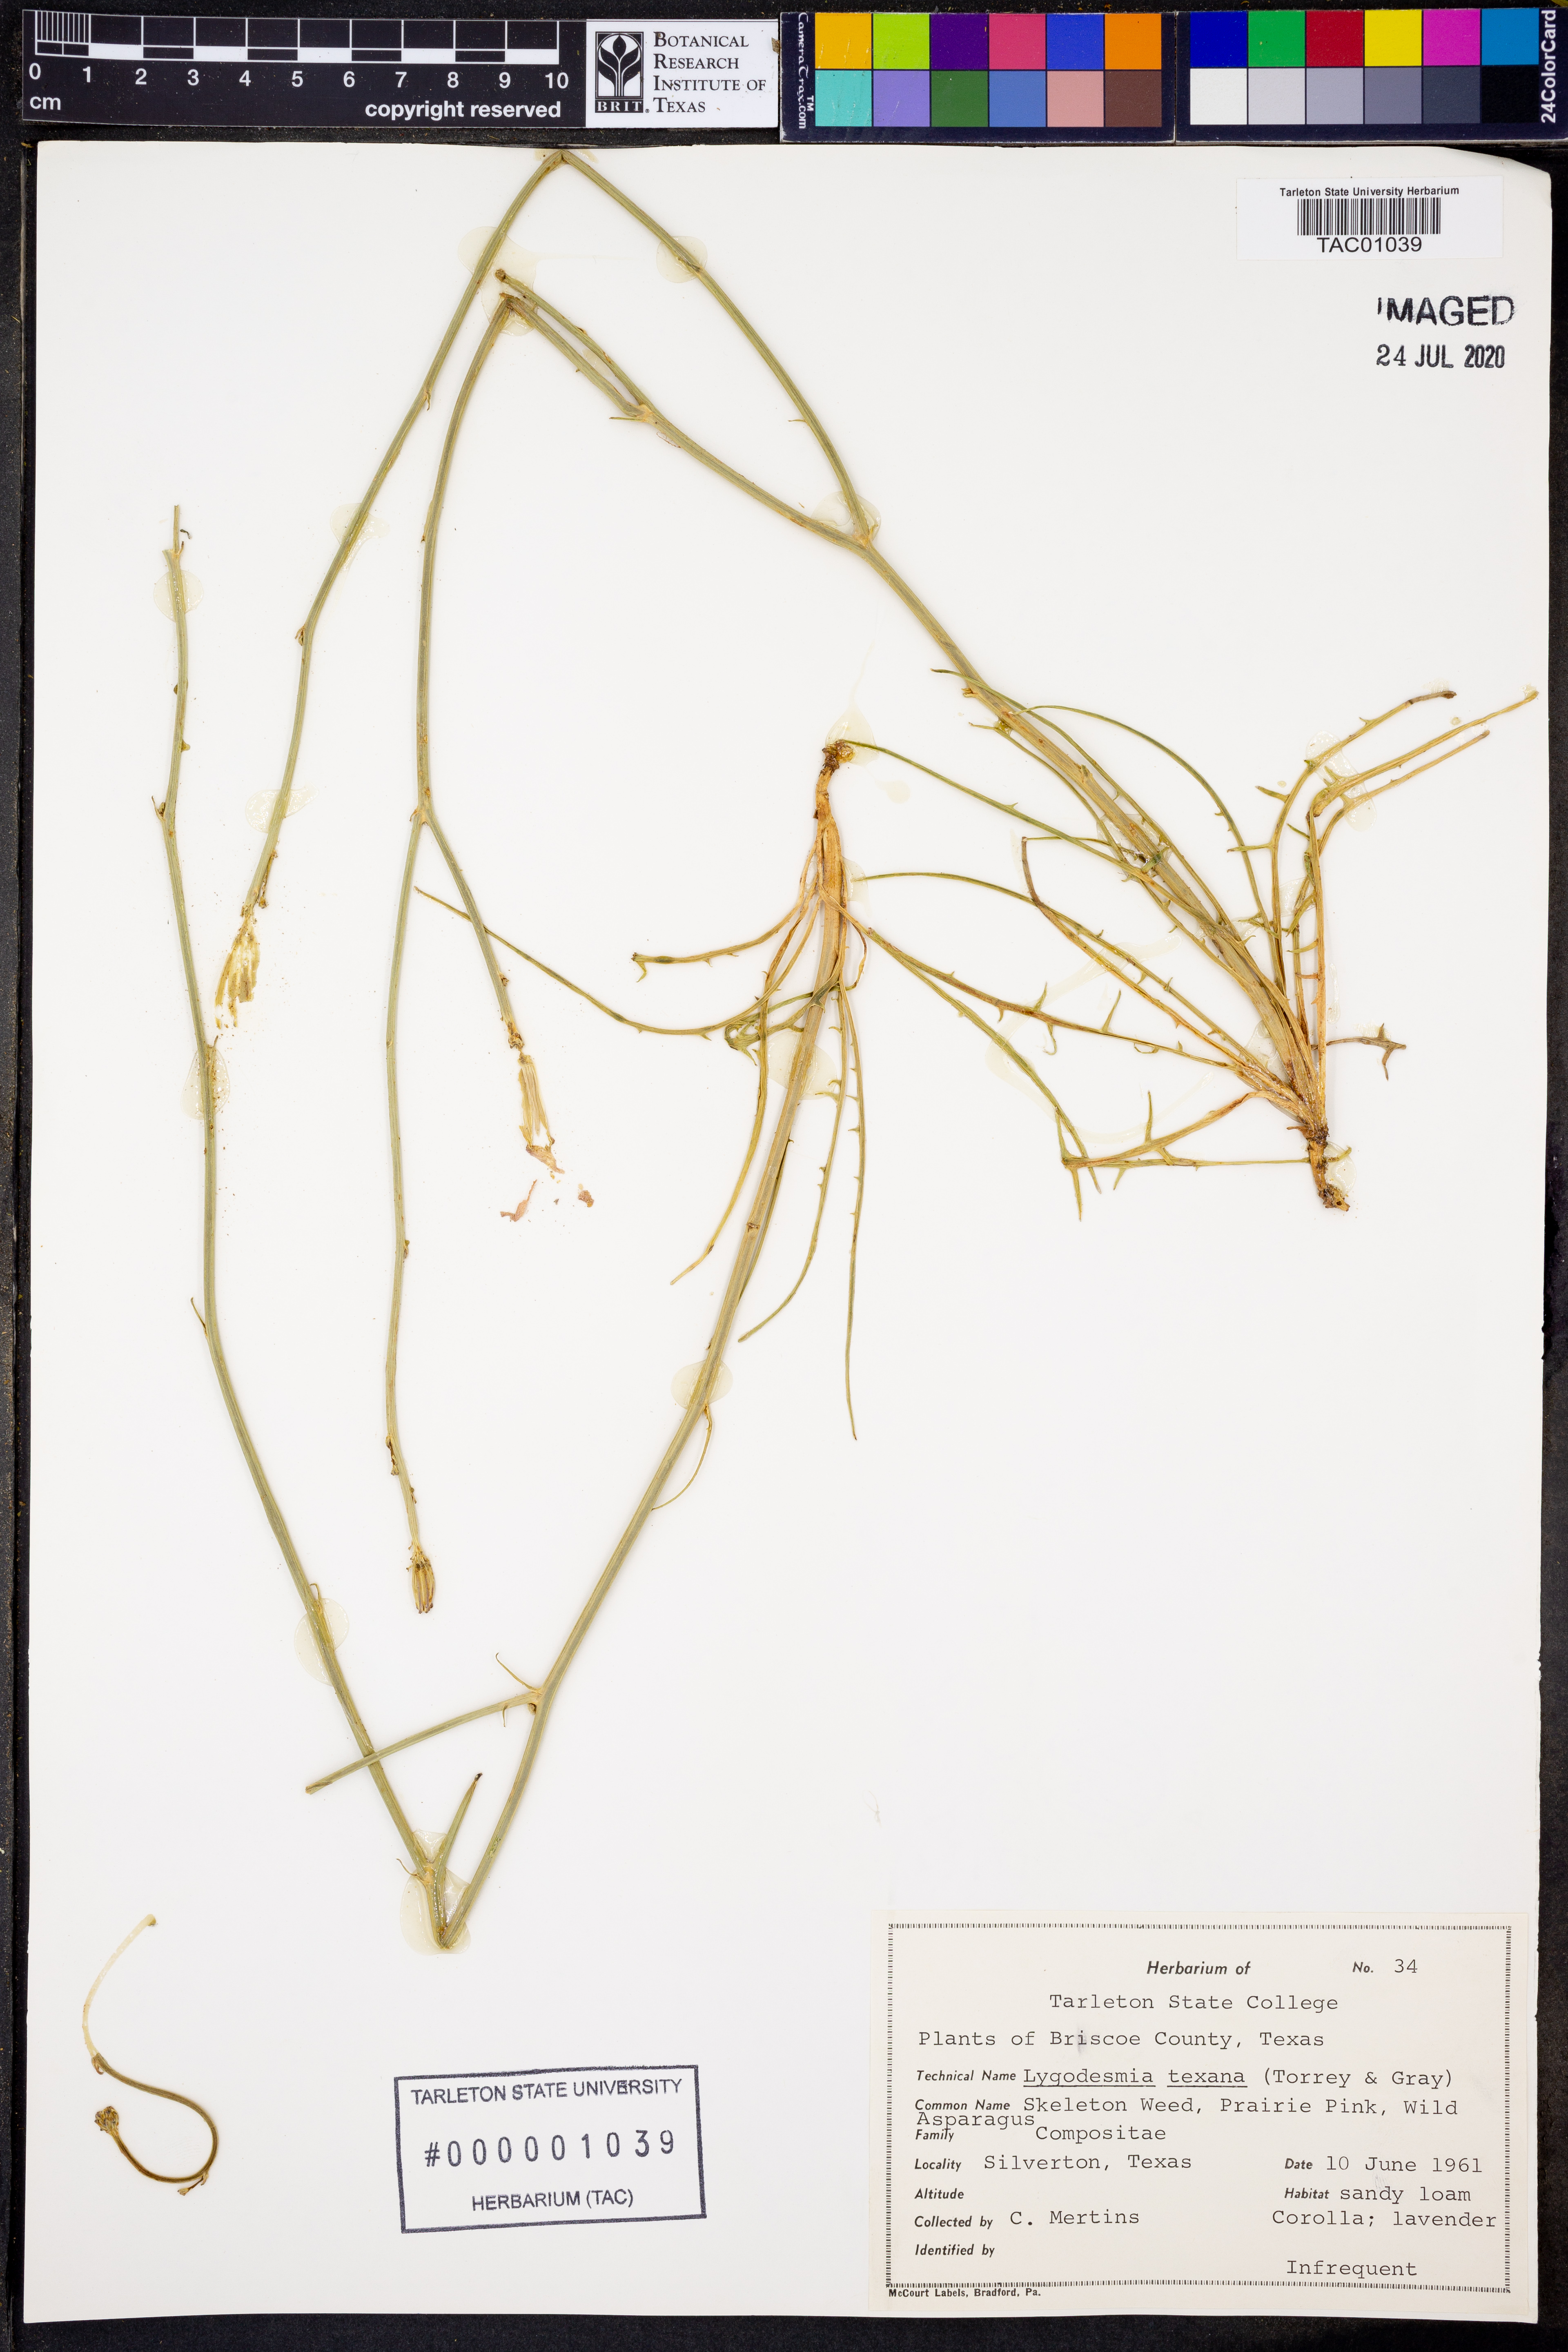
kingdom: Plantae
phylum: Tracheophyta
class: Magnoliopsida
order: Asterales
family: Asteraceae
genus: Lygodesmia
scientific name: Lygodesmia texana
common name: Texas skeleton-plant
